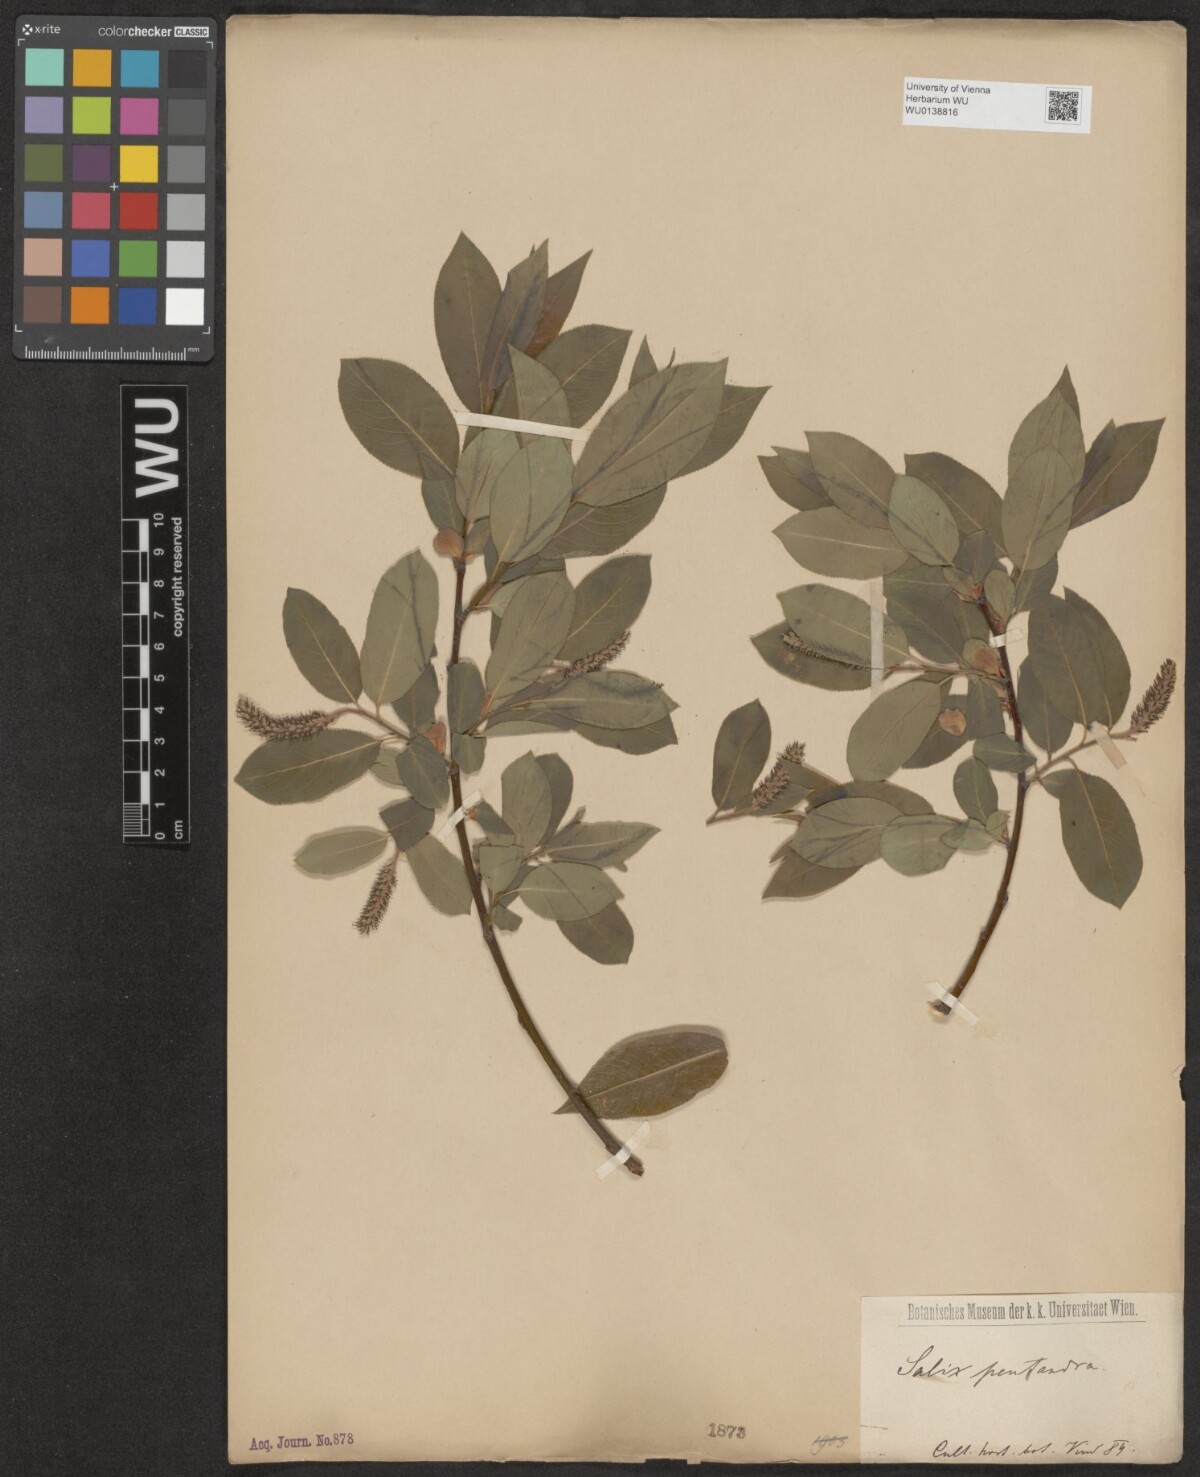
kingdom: Plantae
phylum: Tracheophyta
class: Magnoliopsida
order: Malpighiales
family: Salicaceae
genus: Salix
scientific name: Salix pentandra
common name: Bay willow
